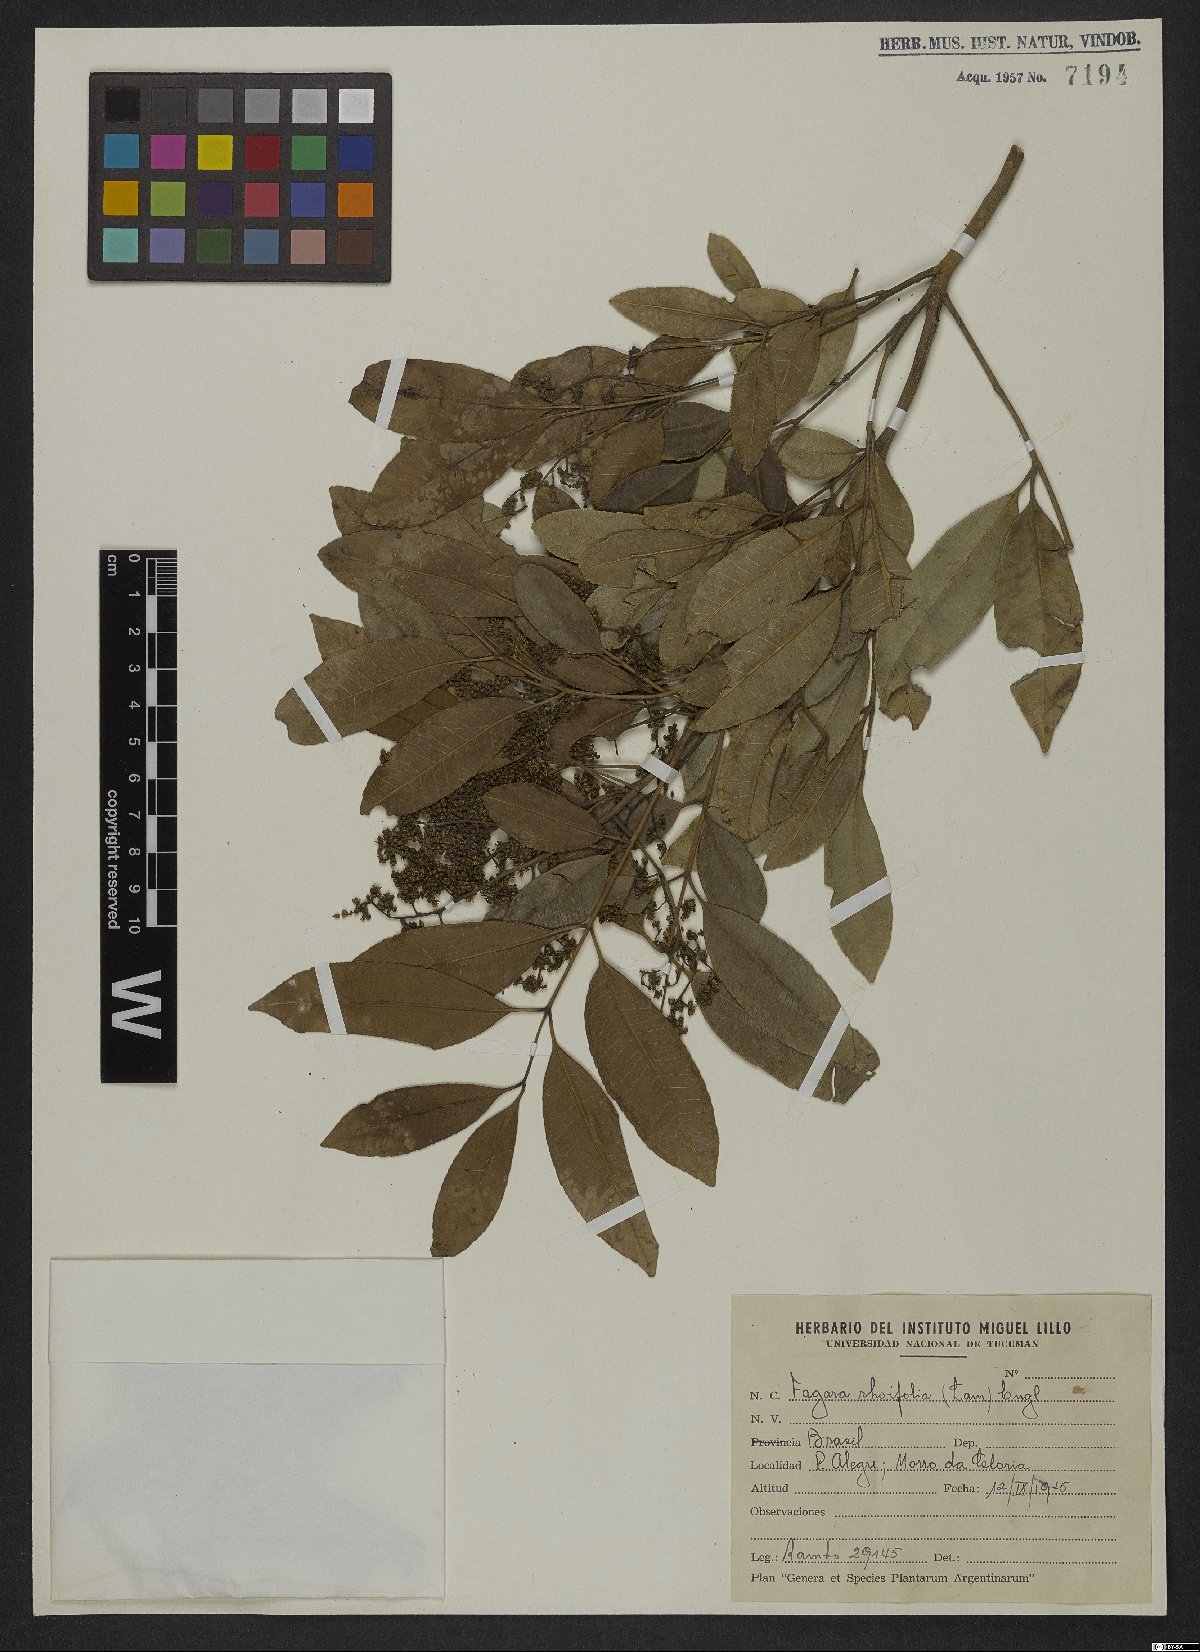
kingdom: Plantae
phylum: Tracheophyta
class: Magnoliopsida
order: Sapindales
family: Rutaceae
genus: Zanthoxylum
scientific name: Zanthoxylum rhoifolium
